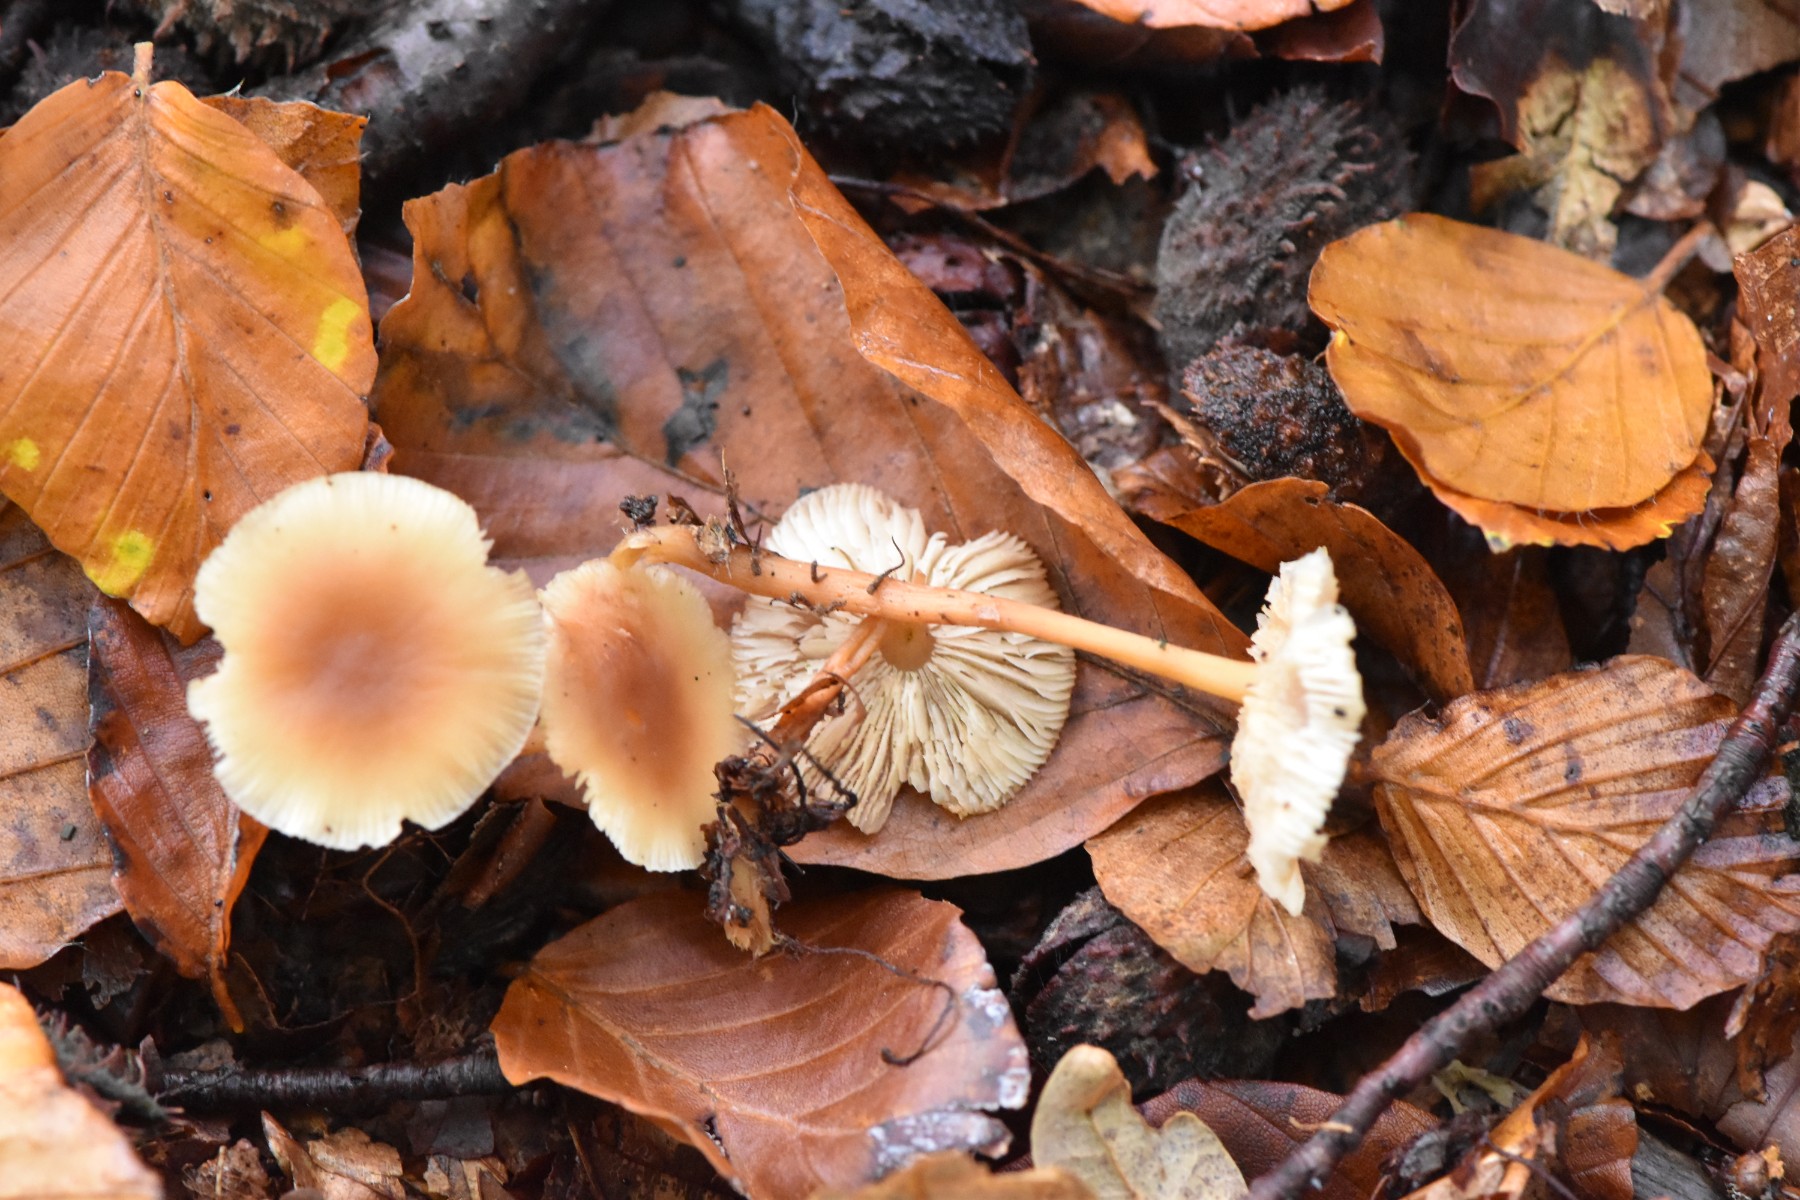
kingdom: Fungi
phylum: Basidiomycota
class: Agaricomycetes
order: Agaricales
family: Omphalotaceae
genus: Gymnopus
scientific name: Gymnopus dryophilus
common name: løv-fladhat
